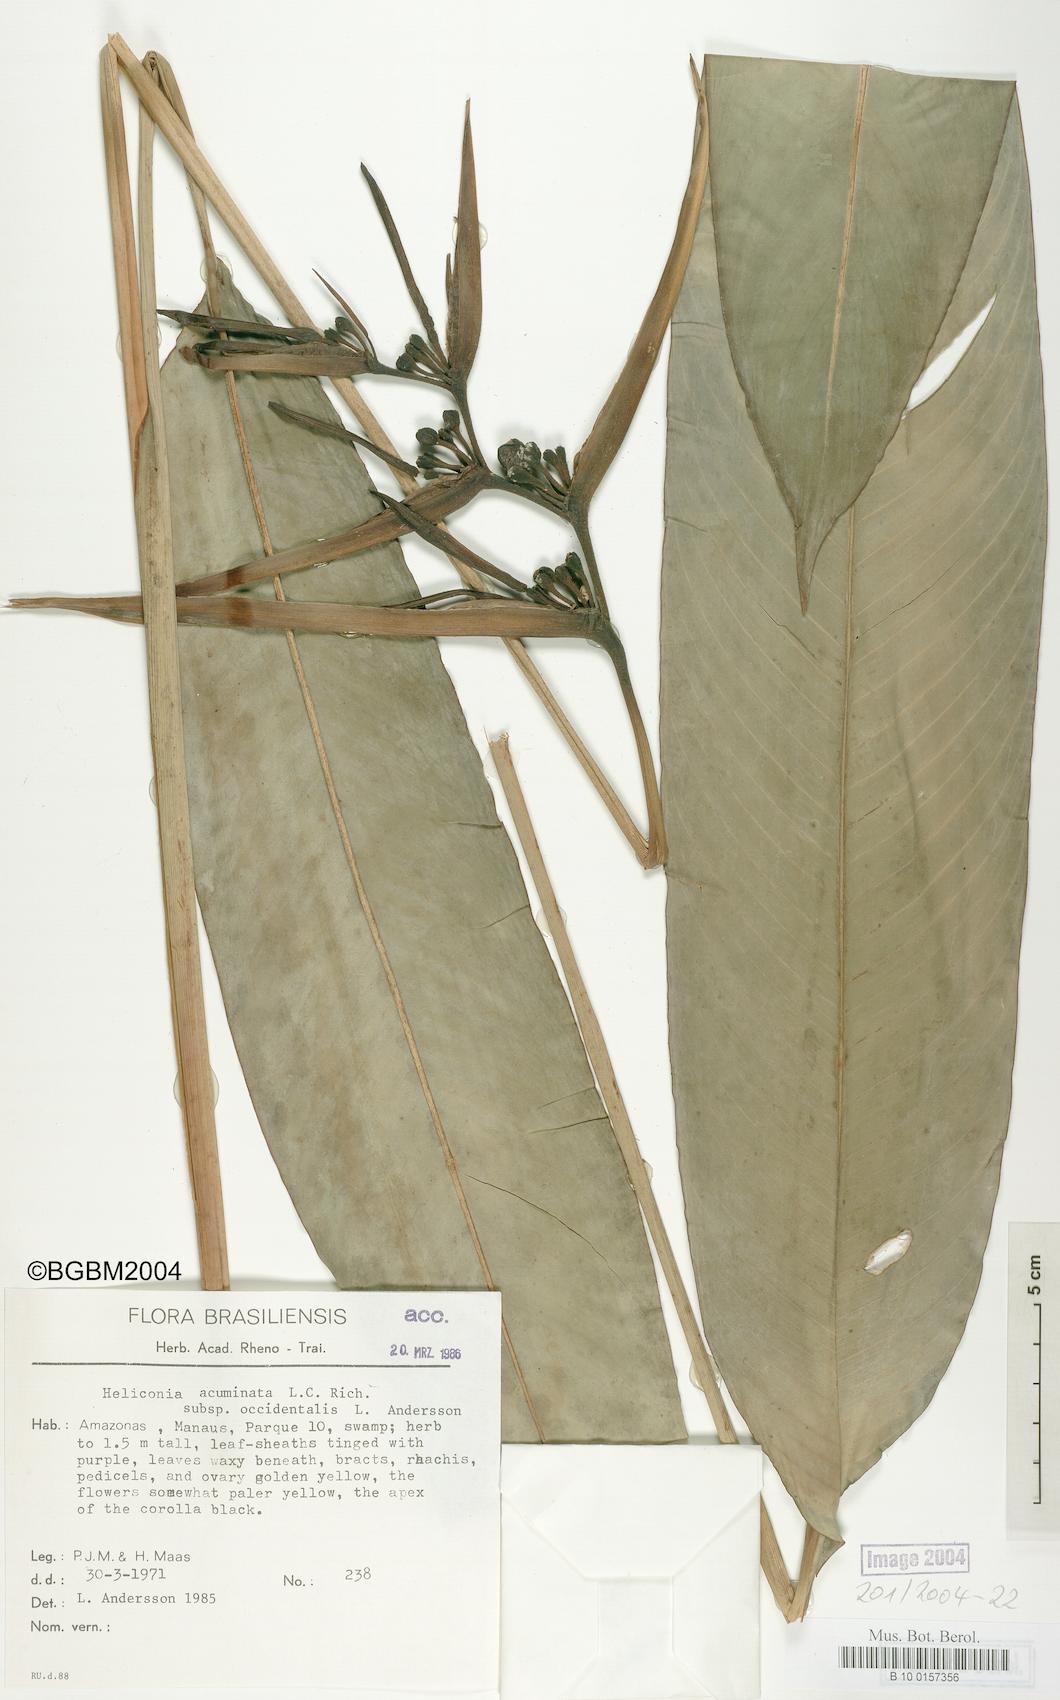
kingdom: Plantae
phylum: Tracheophyta
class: Liliopsida
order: Zingiberales
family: Heliconiaceae
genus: Heliconia
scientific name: Heliconia acuminata
